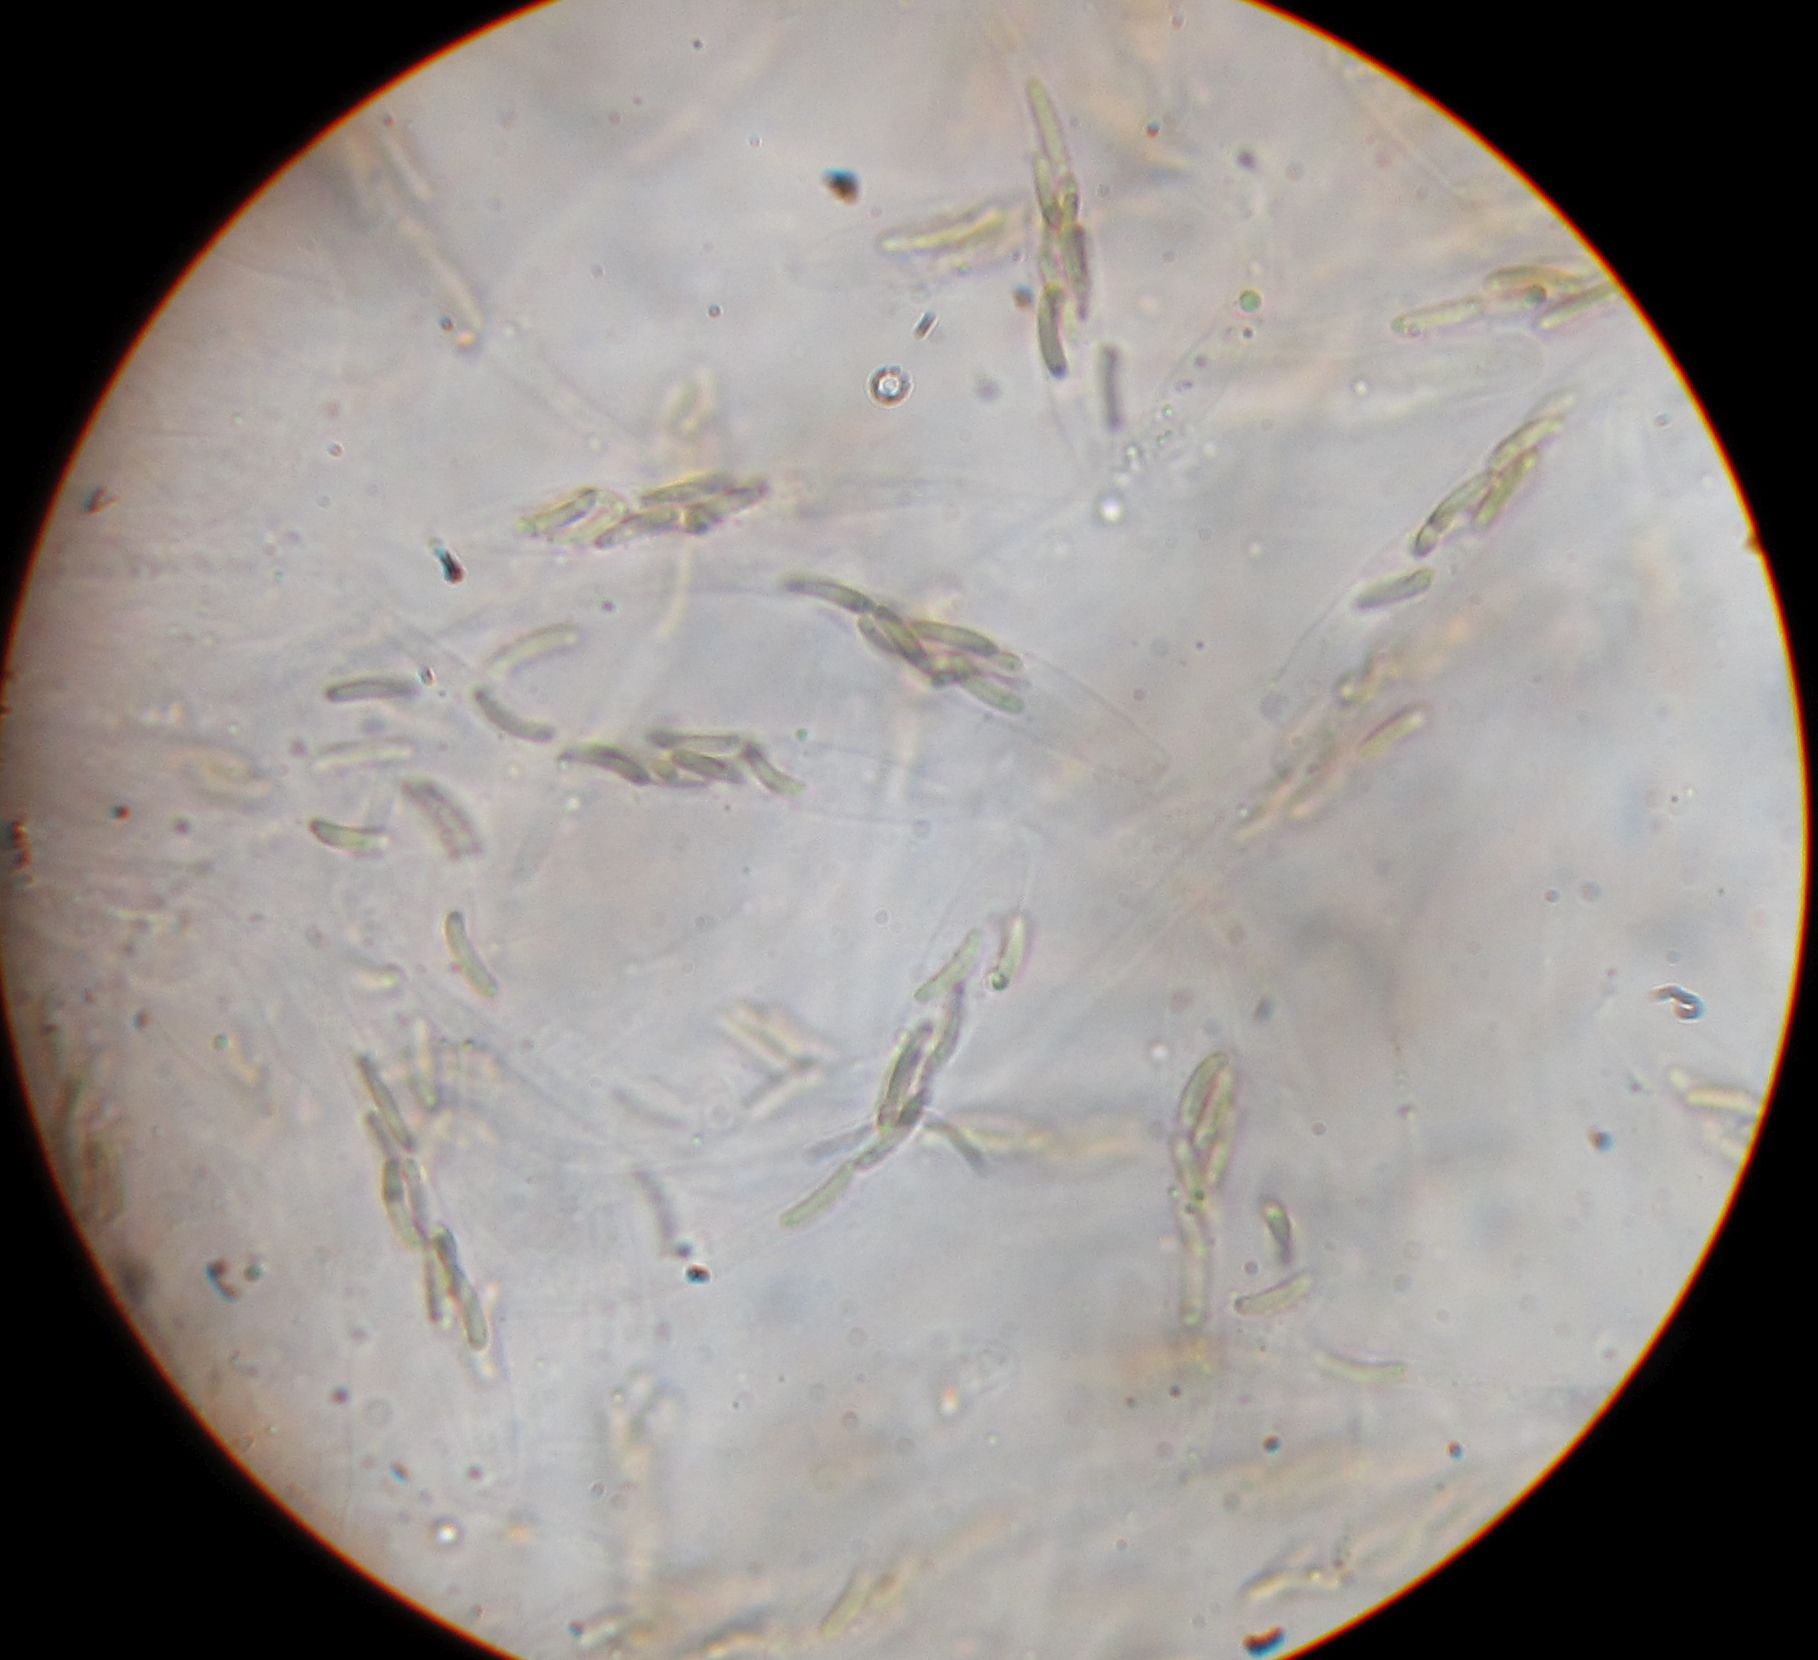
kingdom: Fungi
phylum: Ascomycota
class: Sordariomycetes
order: Xylariales
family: Diatrypaceae
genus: Diatrype
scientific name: Diatrype bullata
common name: pile-kulskorpe
